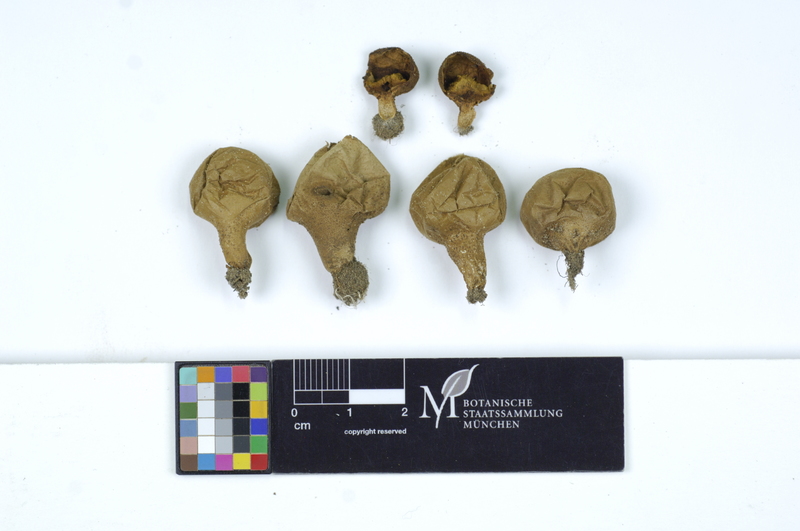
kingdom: Fungi
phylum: Basidiomycota
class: Agaricomycetes
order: Agaricales
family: Lycoperdaceae
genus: Lycoperdon
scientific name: Lycoperdon lividum
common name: Grassland puffball
